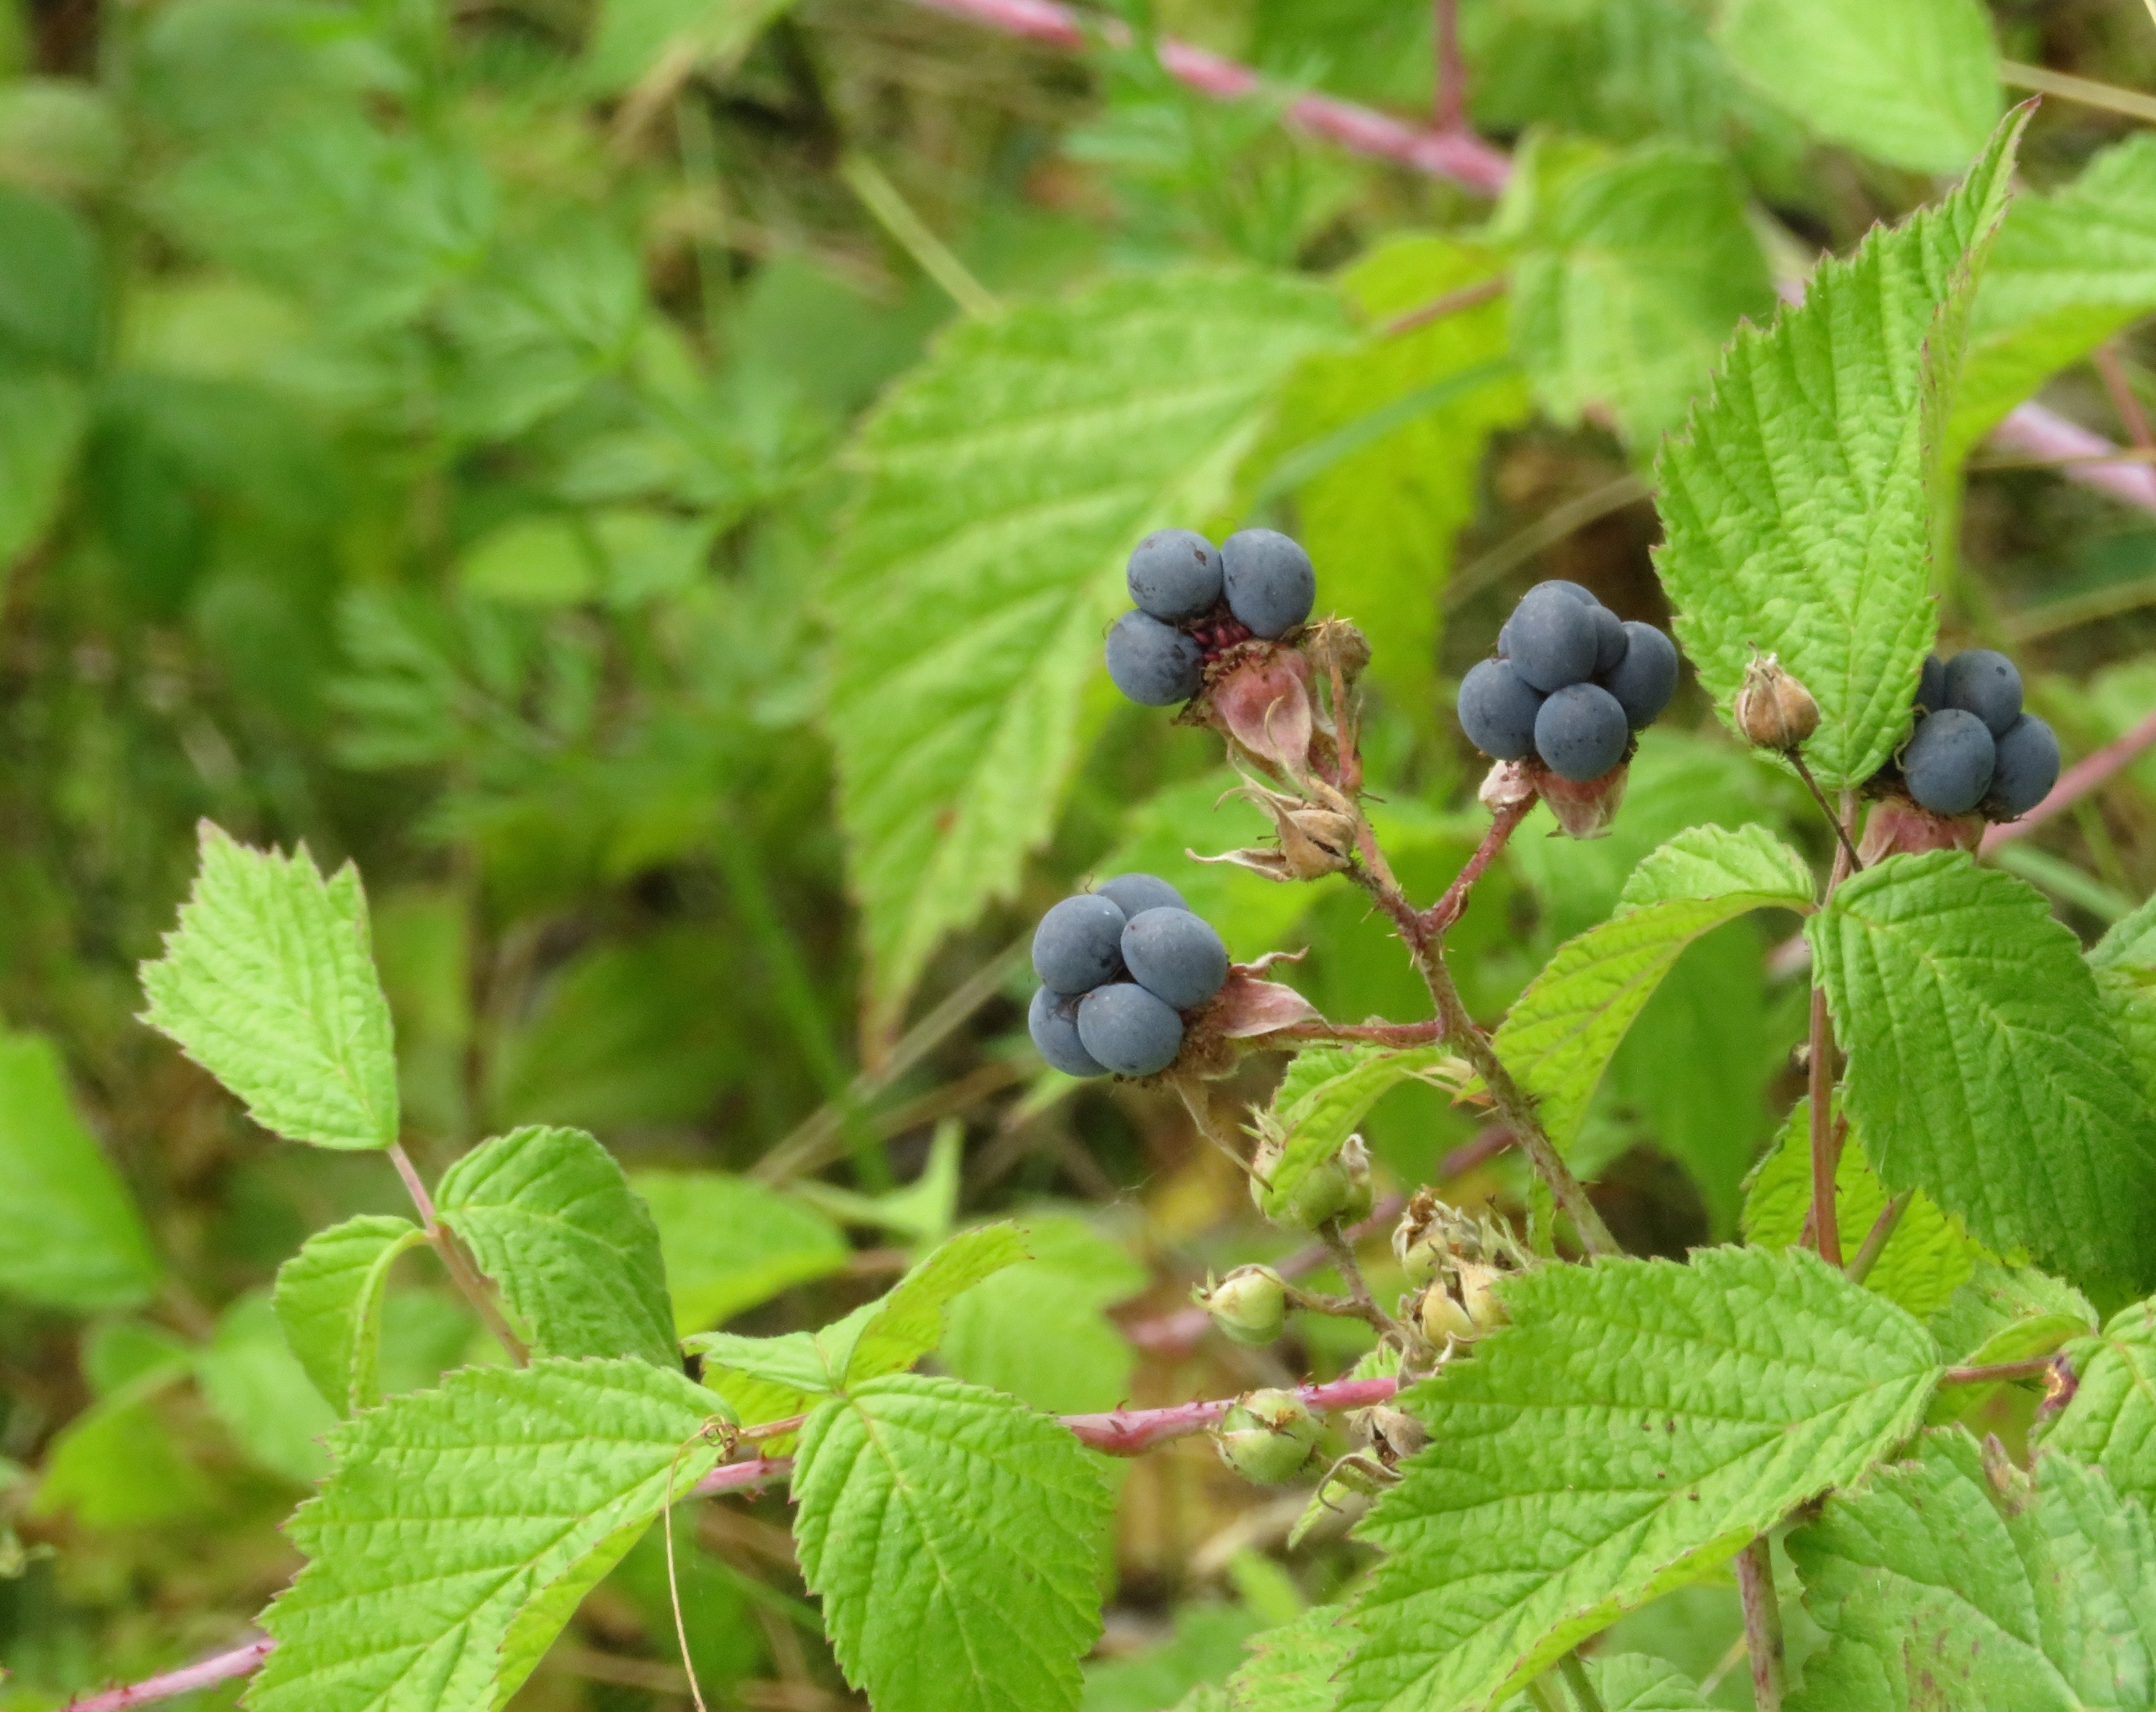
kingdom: Plantae
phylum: Tracheophyta
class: Magnoliopsida
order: Rosales
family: Rosaceae
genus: Rubus
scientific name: Rubus caesius
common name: Korbær
